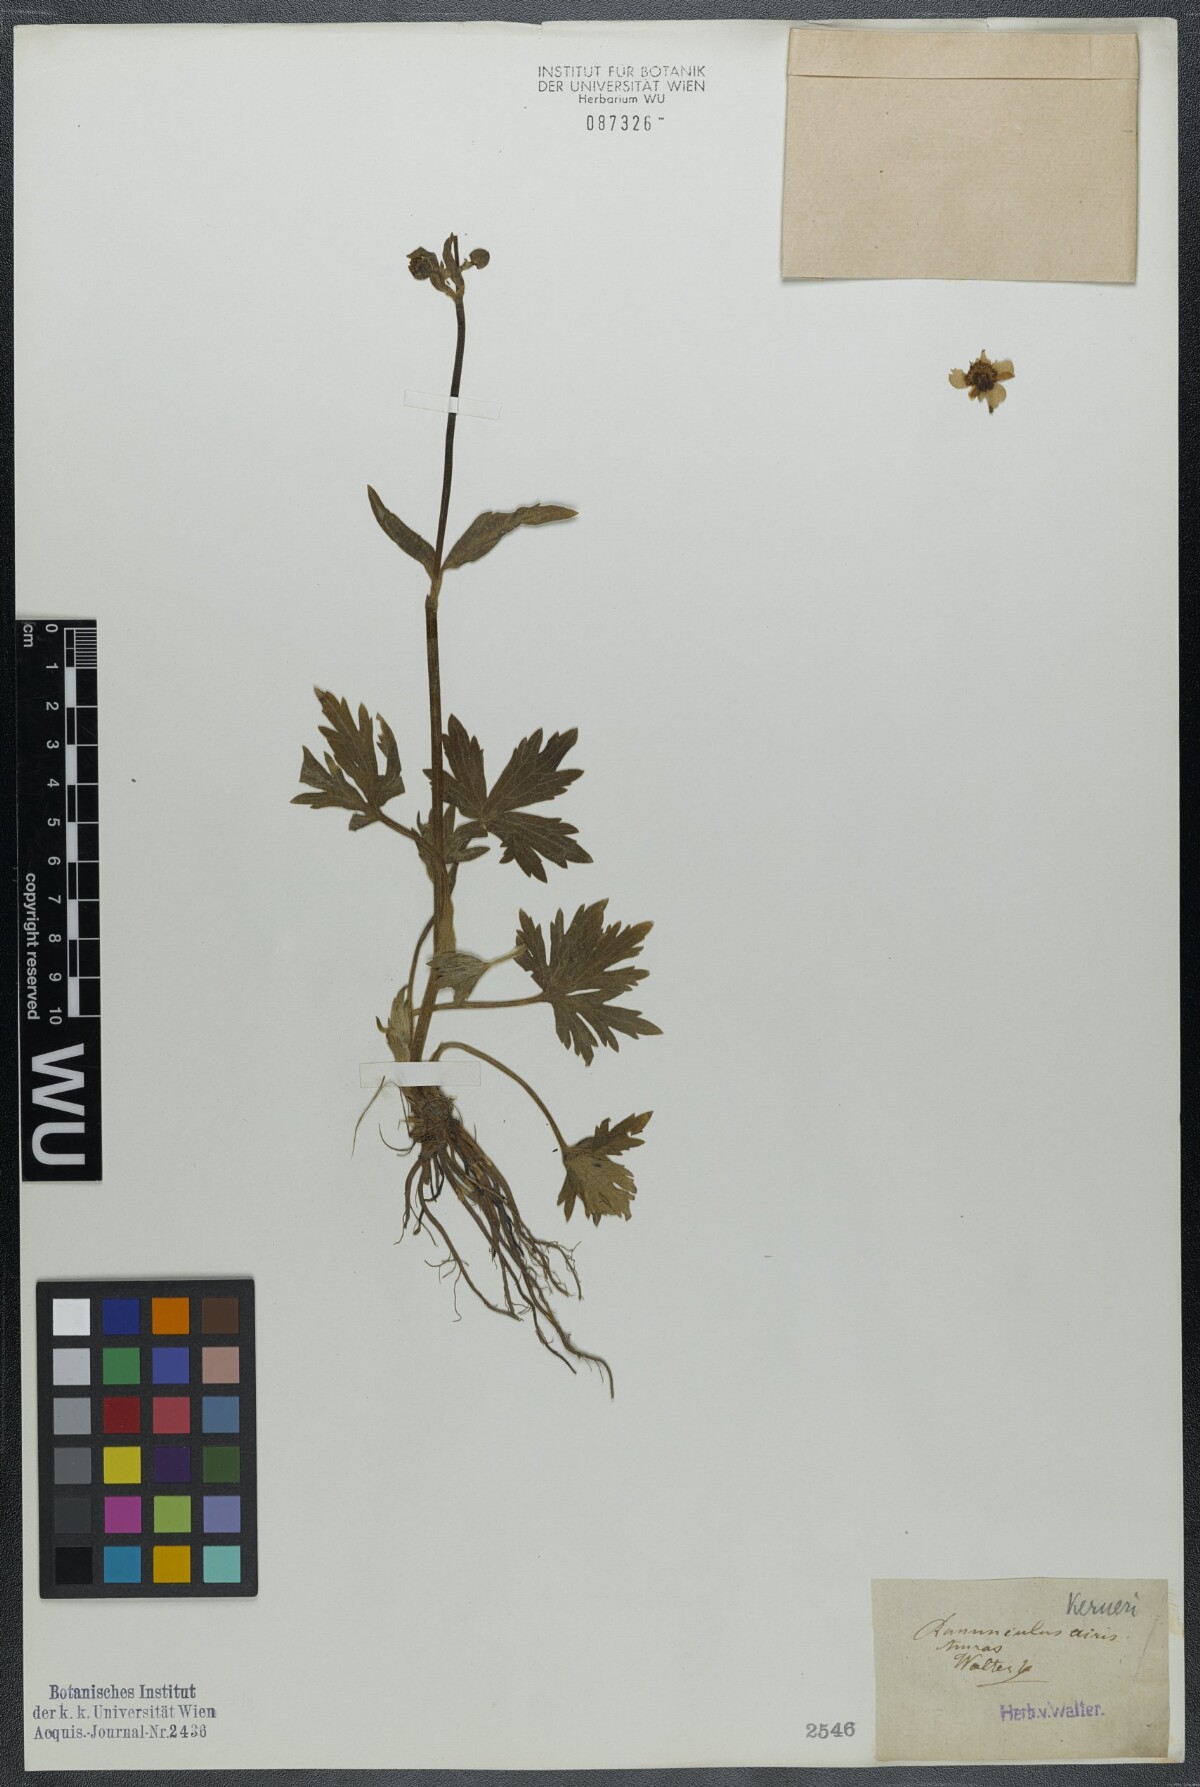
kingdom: Plantae
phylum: Tracheophyta
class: Magnoliopsida
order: Ranunculales
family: Ranunculaceae
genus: Ranunculus
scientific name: Ranunculus acris
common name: Meadow buttercup
